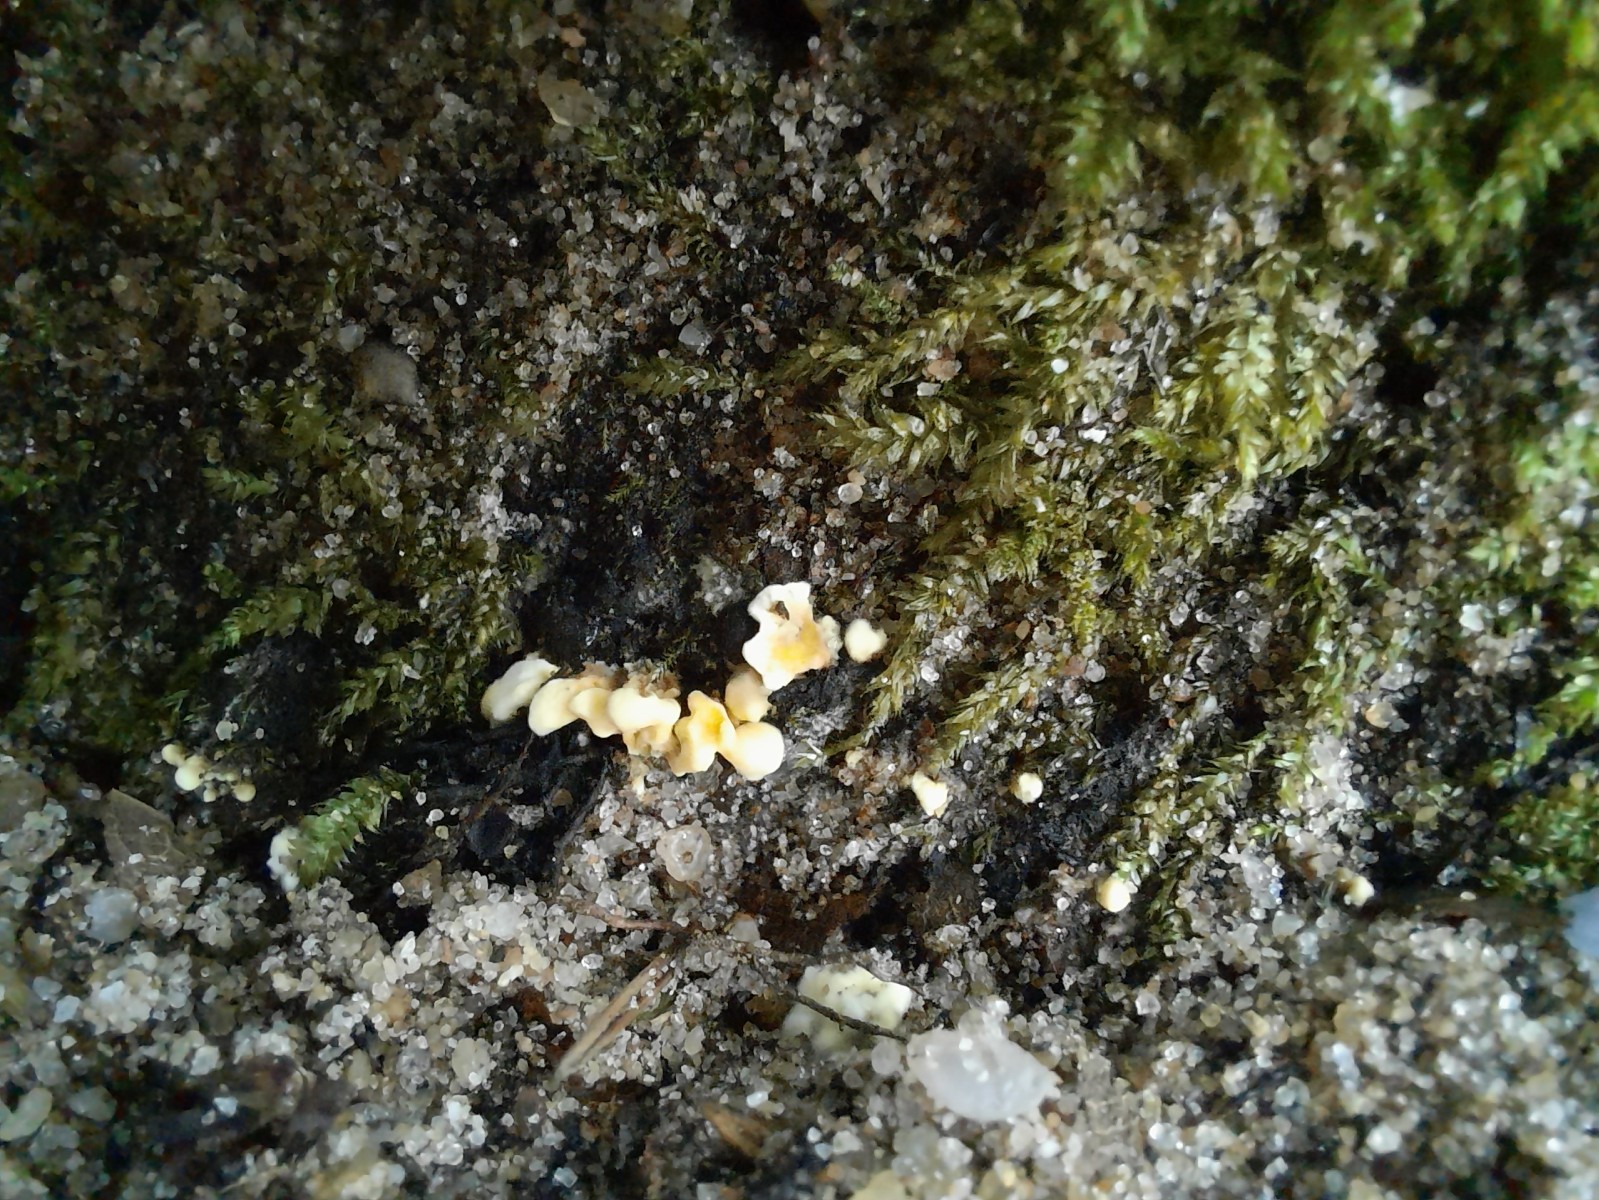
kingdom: Fungi
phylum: Basidiomycota
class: Agaricomycetes
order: Stereopsidales
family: Stereopsidaceae
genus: Stereopsis
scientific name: Stereopsis vitellina
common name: stilklædersvamp
